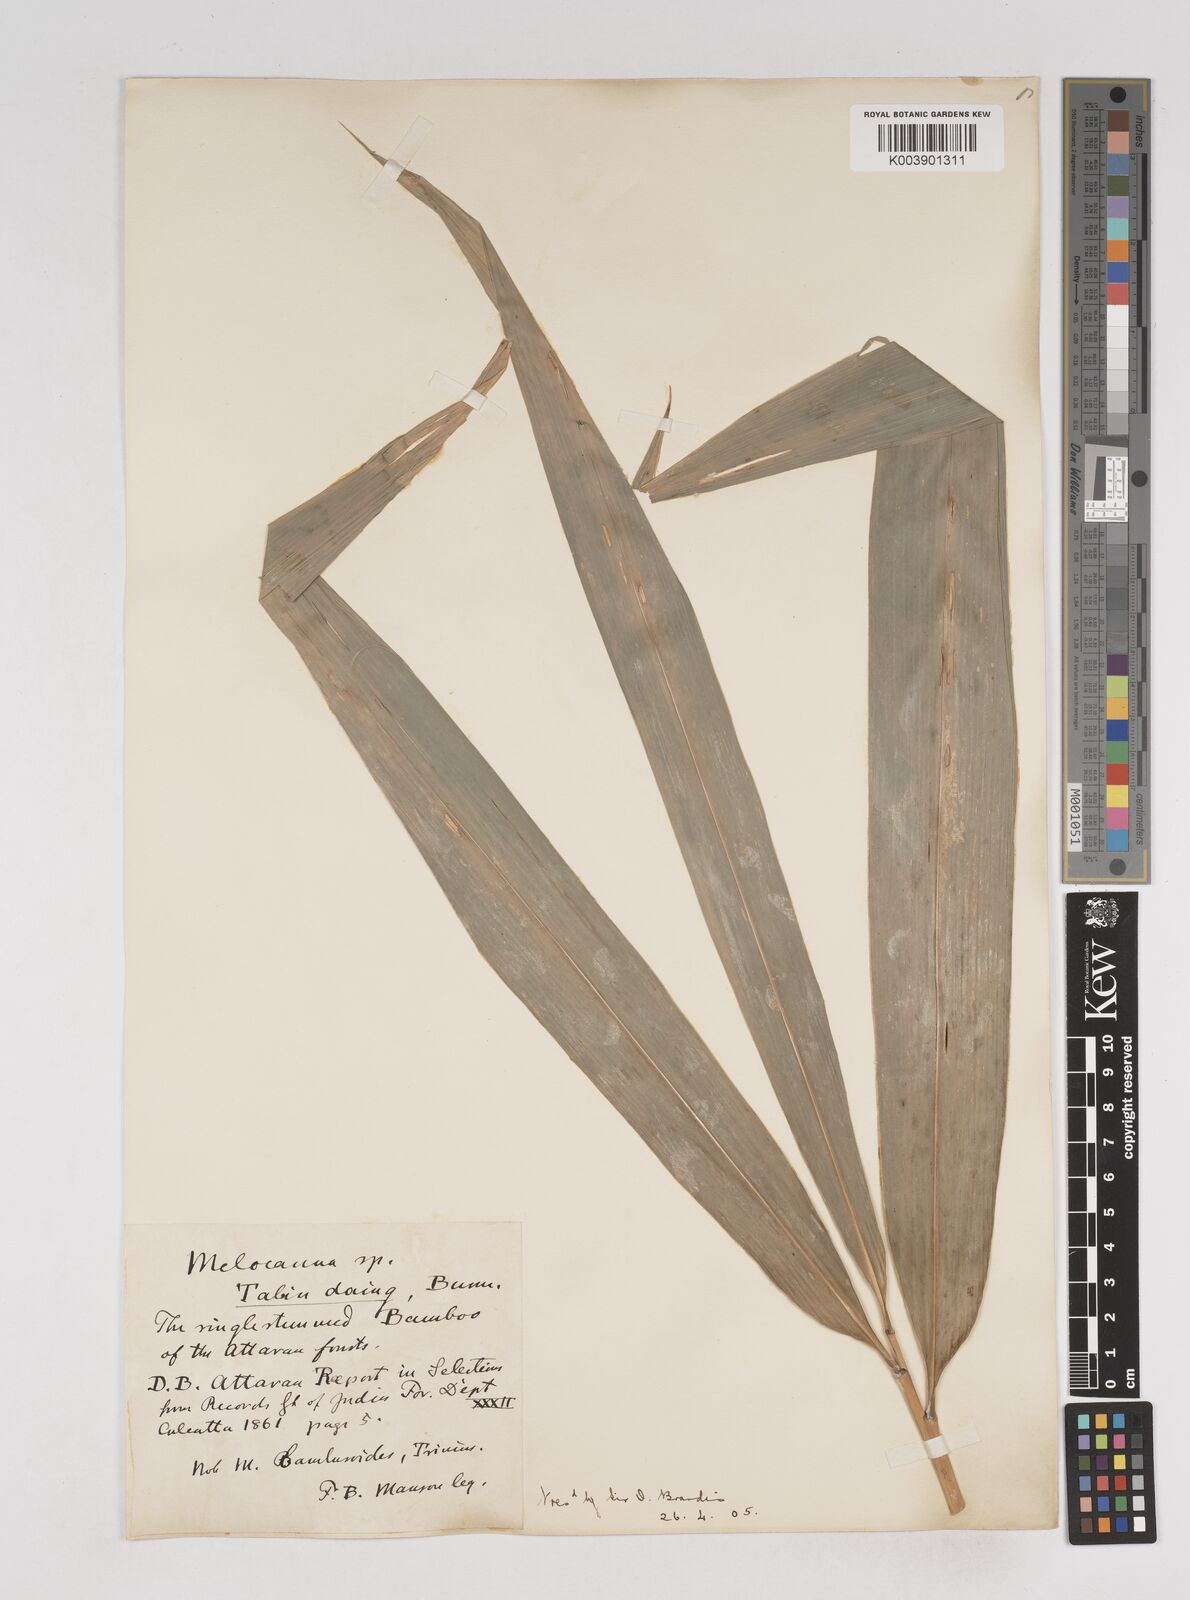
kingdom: Plantae
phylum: Tracheophyta
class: Liliopsida
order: Poales
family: Poaceae
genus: Melocanna
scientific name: Melocanna
